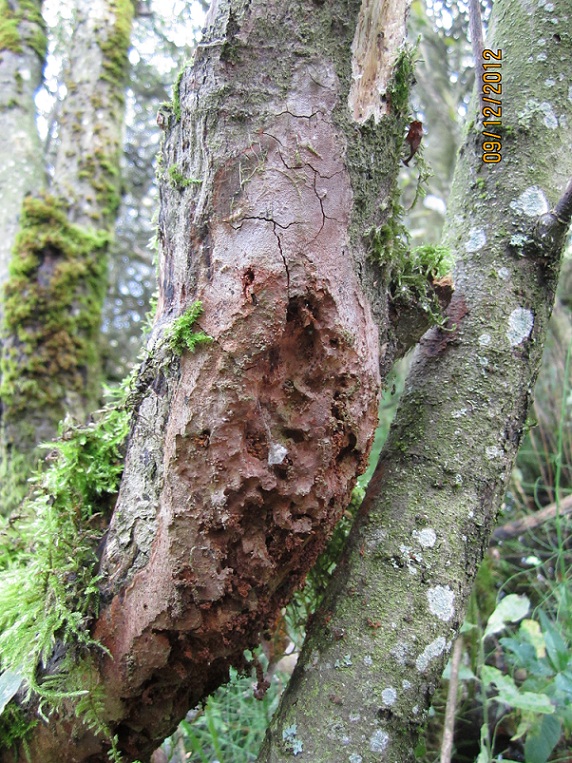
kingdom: Fungi
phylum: Basidiomycota
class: Agaricomycetes
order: Hymenochaetales
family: Hymenochaetaceae
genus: Fomitiporia
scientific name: Fomitiporia punctata
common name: pude-ildporesvamp
